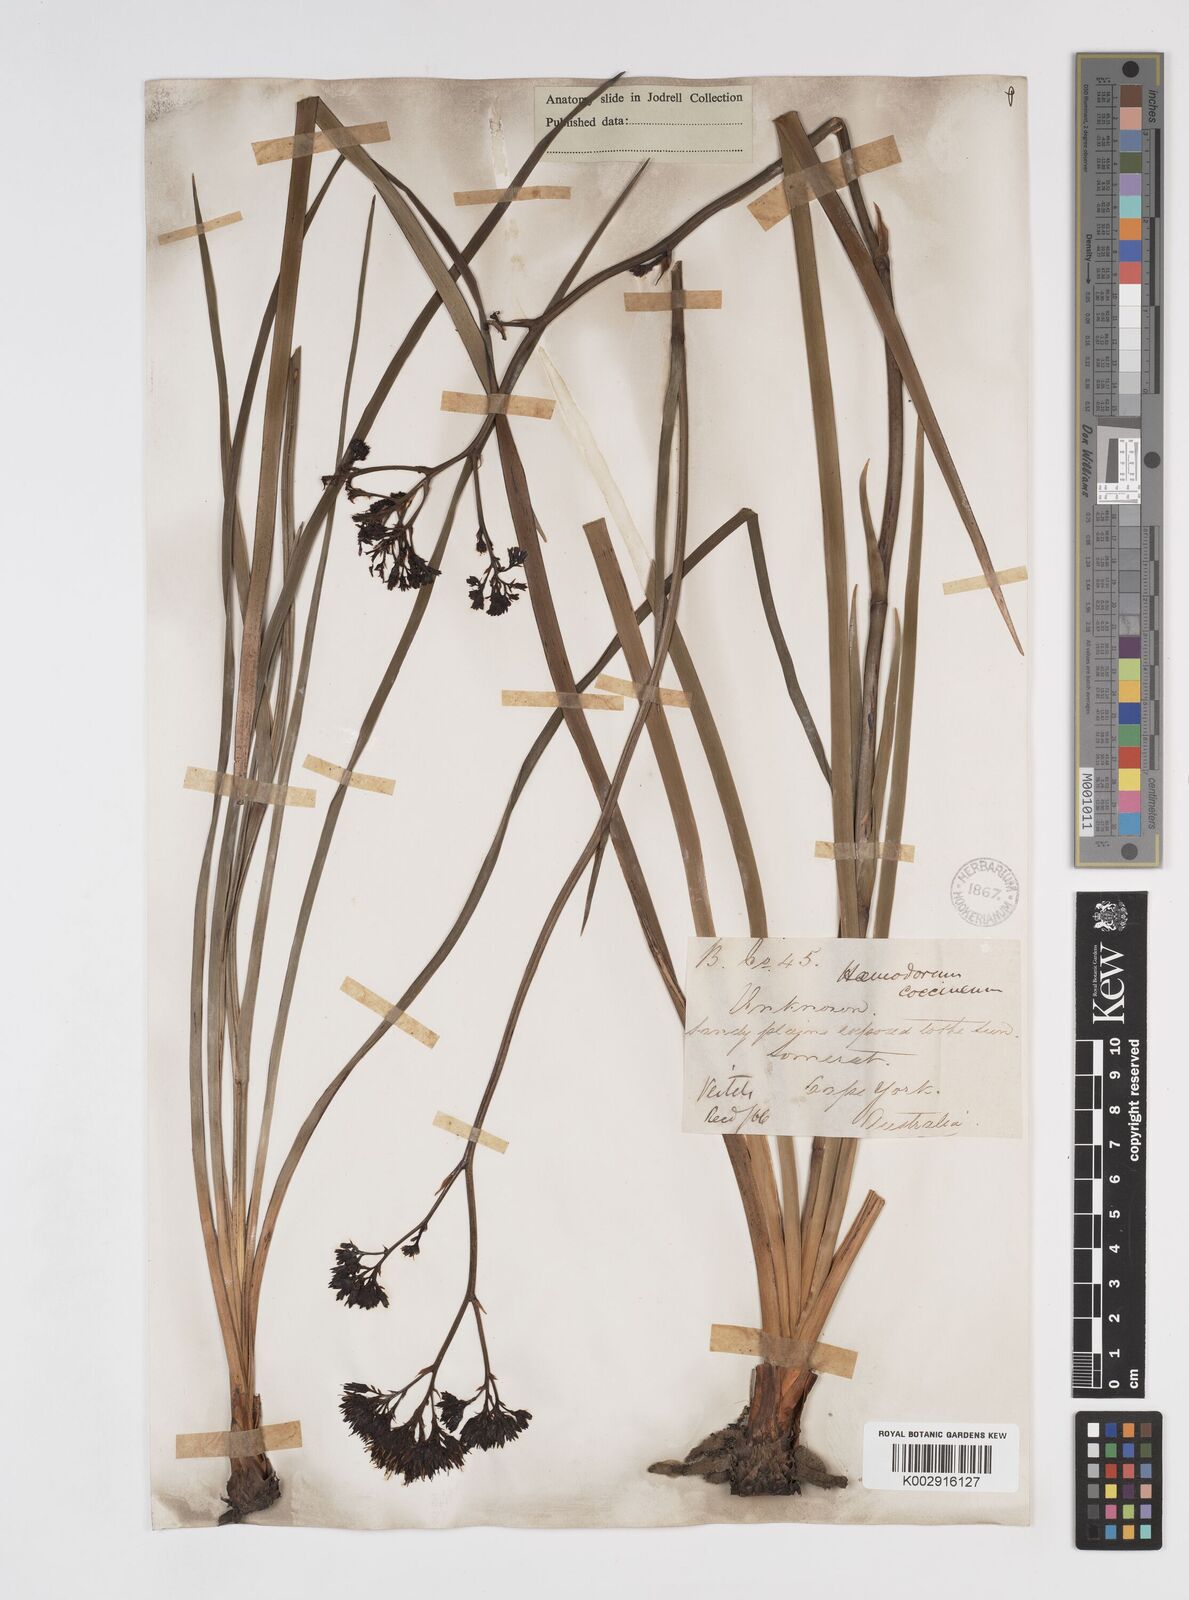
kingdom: Plantae
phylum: Tracheophyta
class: Liliopsida
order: Commelinales
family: Haemodoraceae
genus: Haemodorum
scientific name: Haemodorum coccineum
